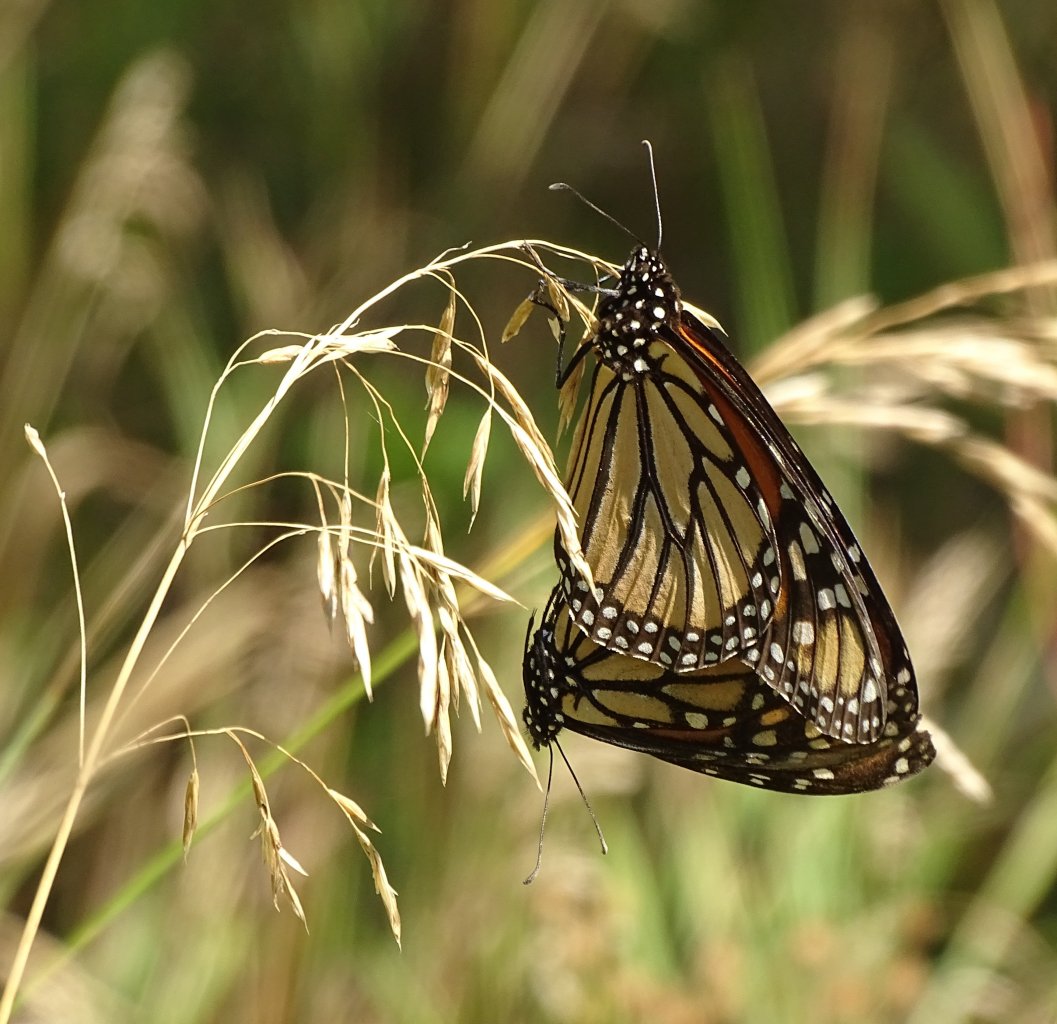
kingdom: Animalia
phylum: Arthropoda
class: Insecta
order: Lepidoptera
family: Nymphalidae
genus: Danaus
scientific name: Danaus plexippus
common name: Monarch
